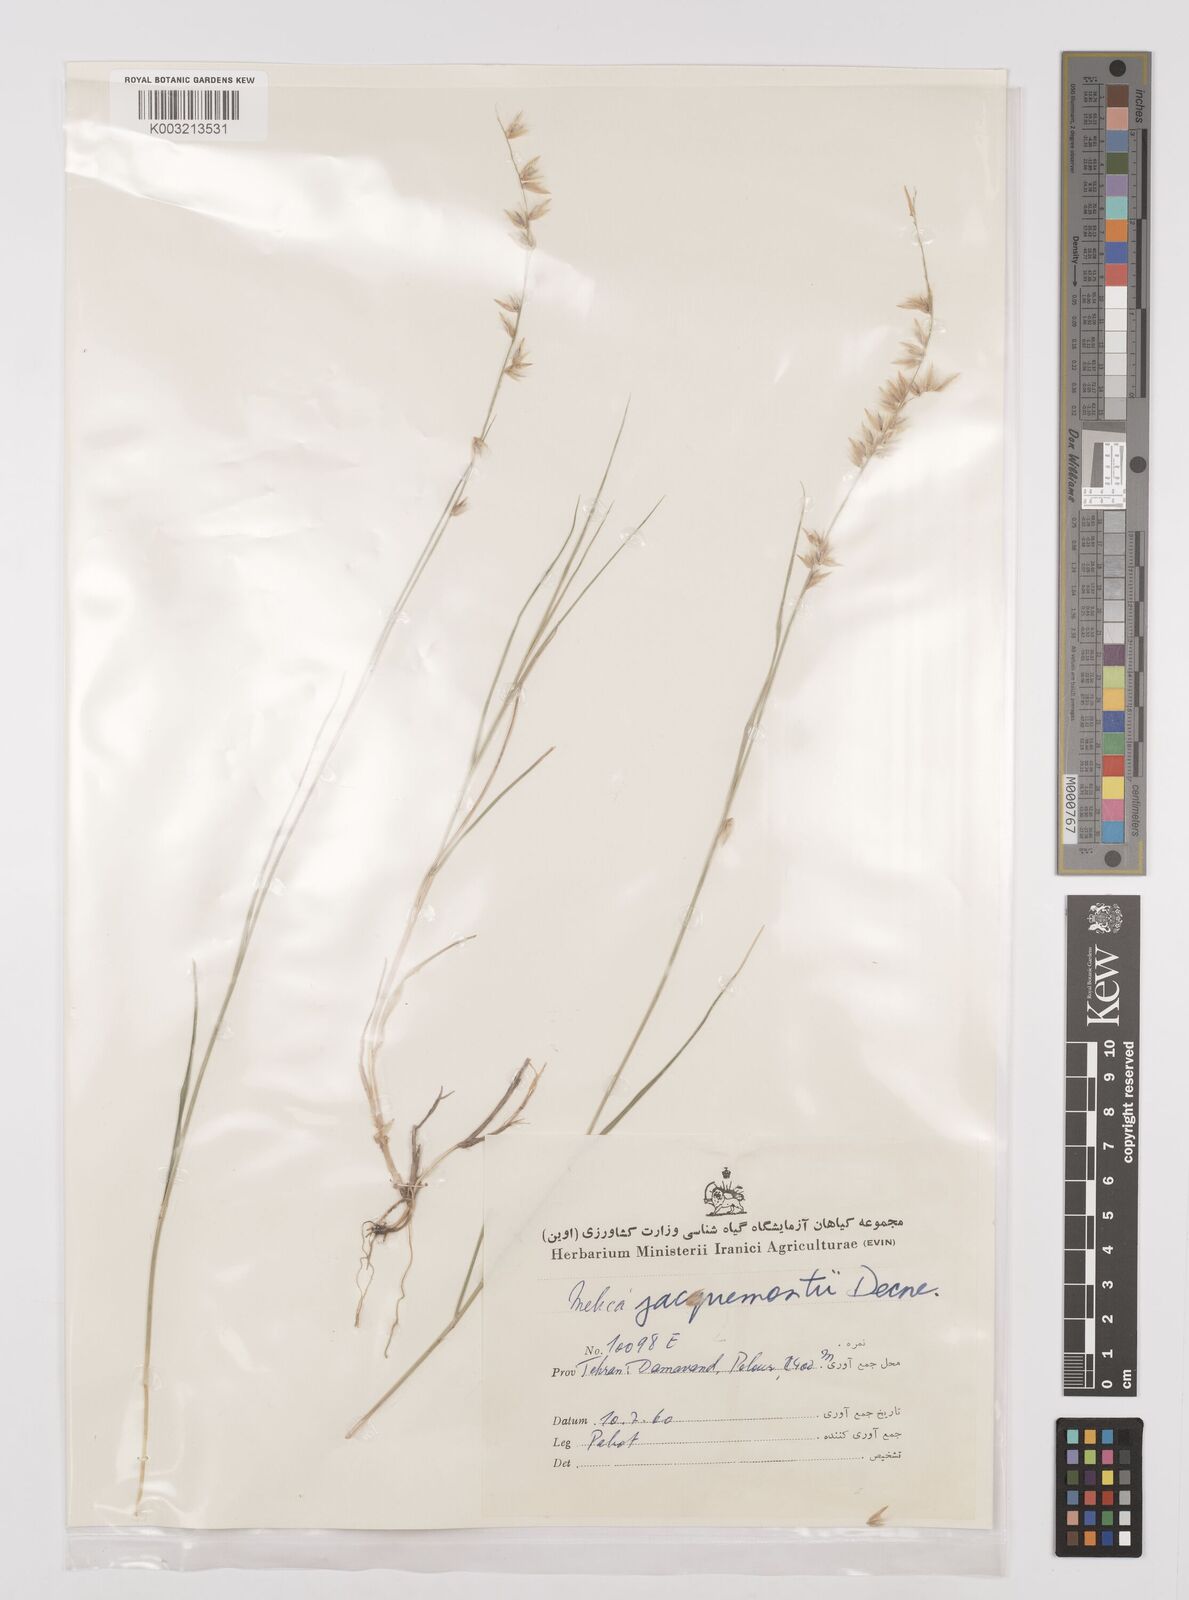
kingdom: Plantae
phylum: Tracheophyta
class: Liliopsida
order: Poales
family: Poaceae
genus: Melica
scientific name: Melica persica
